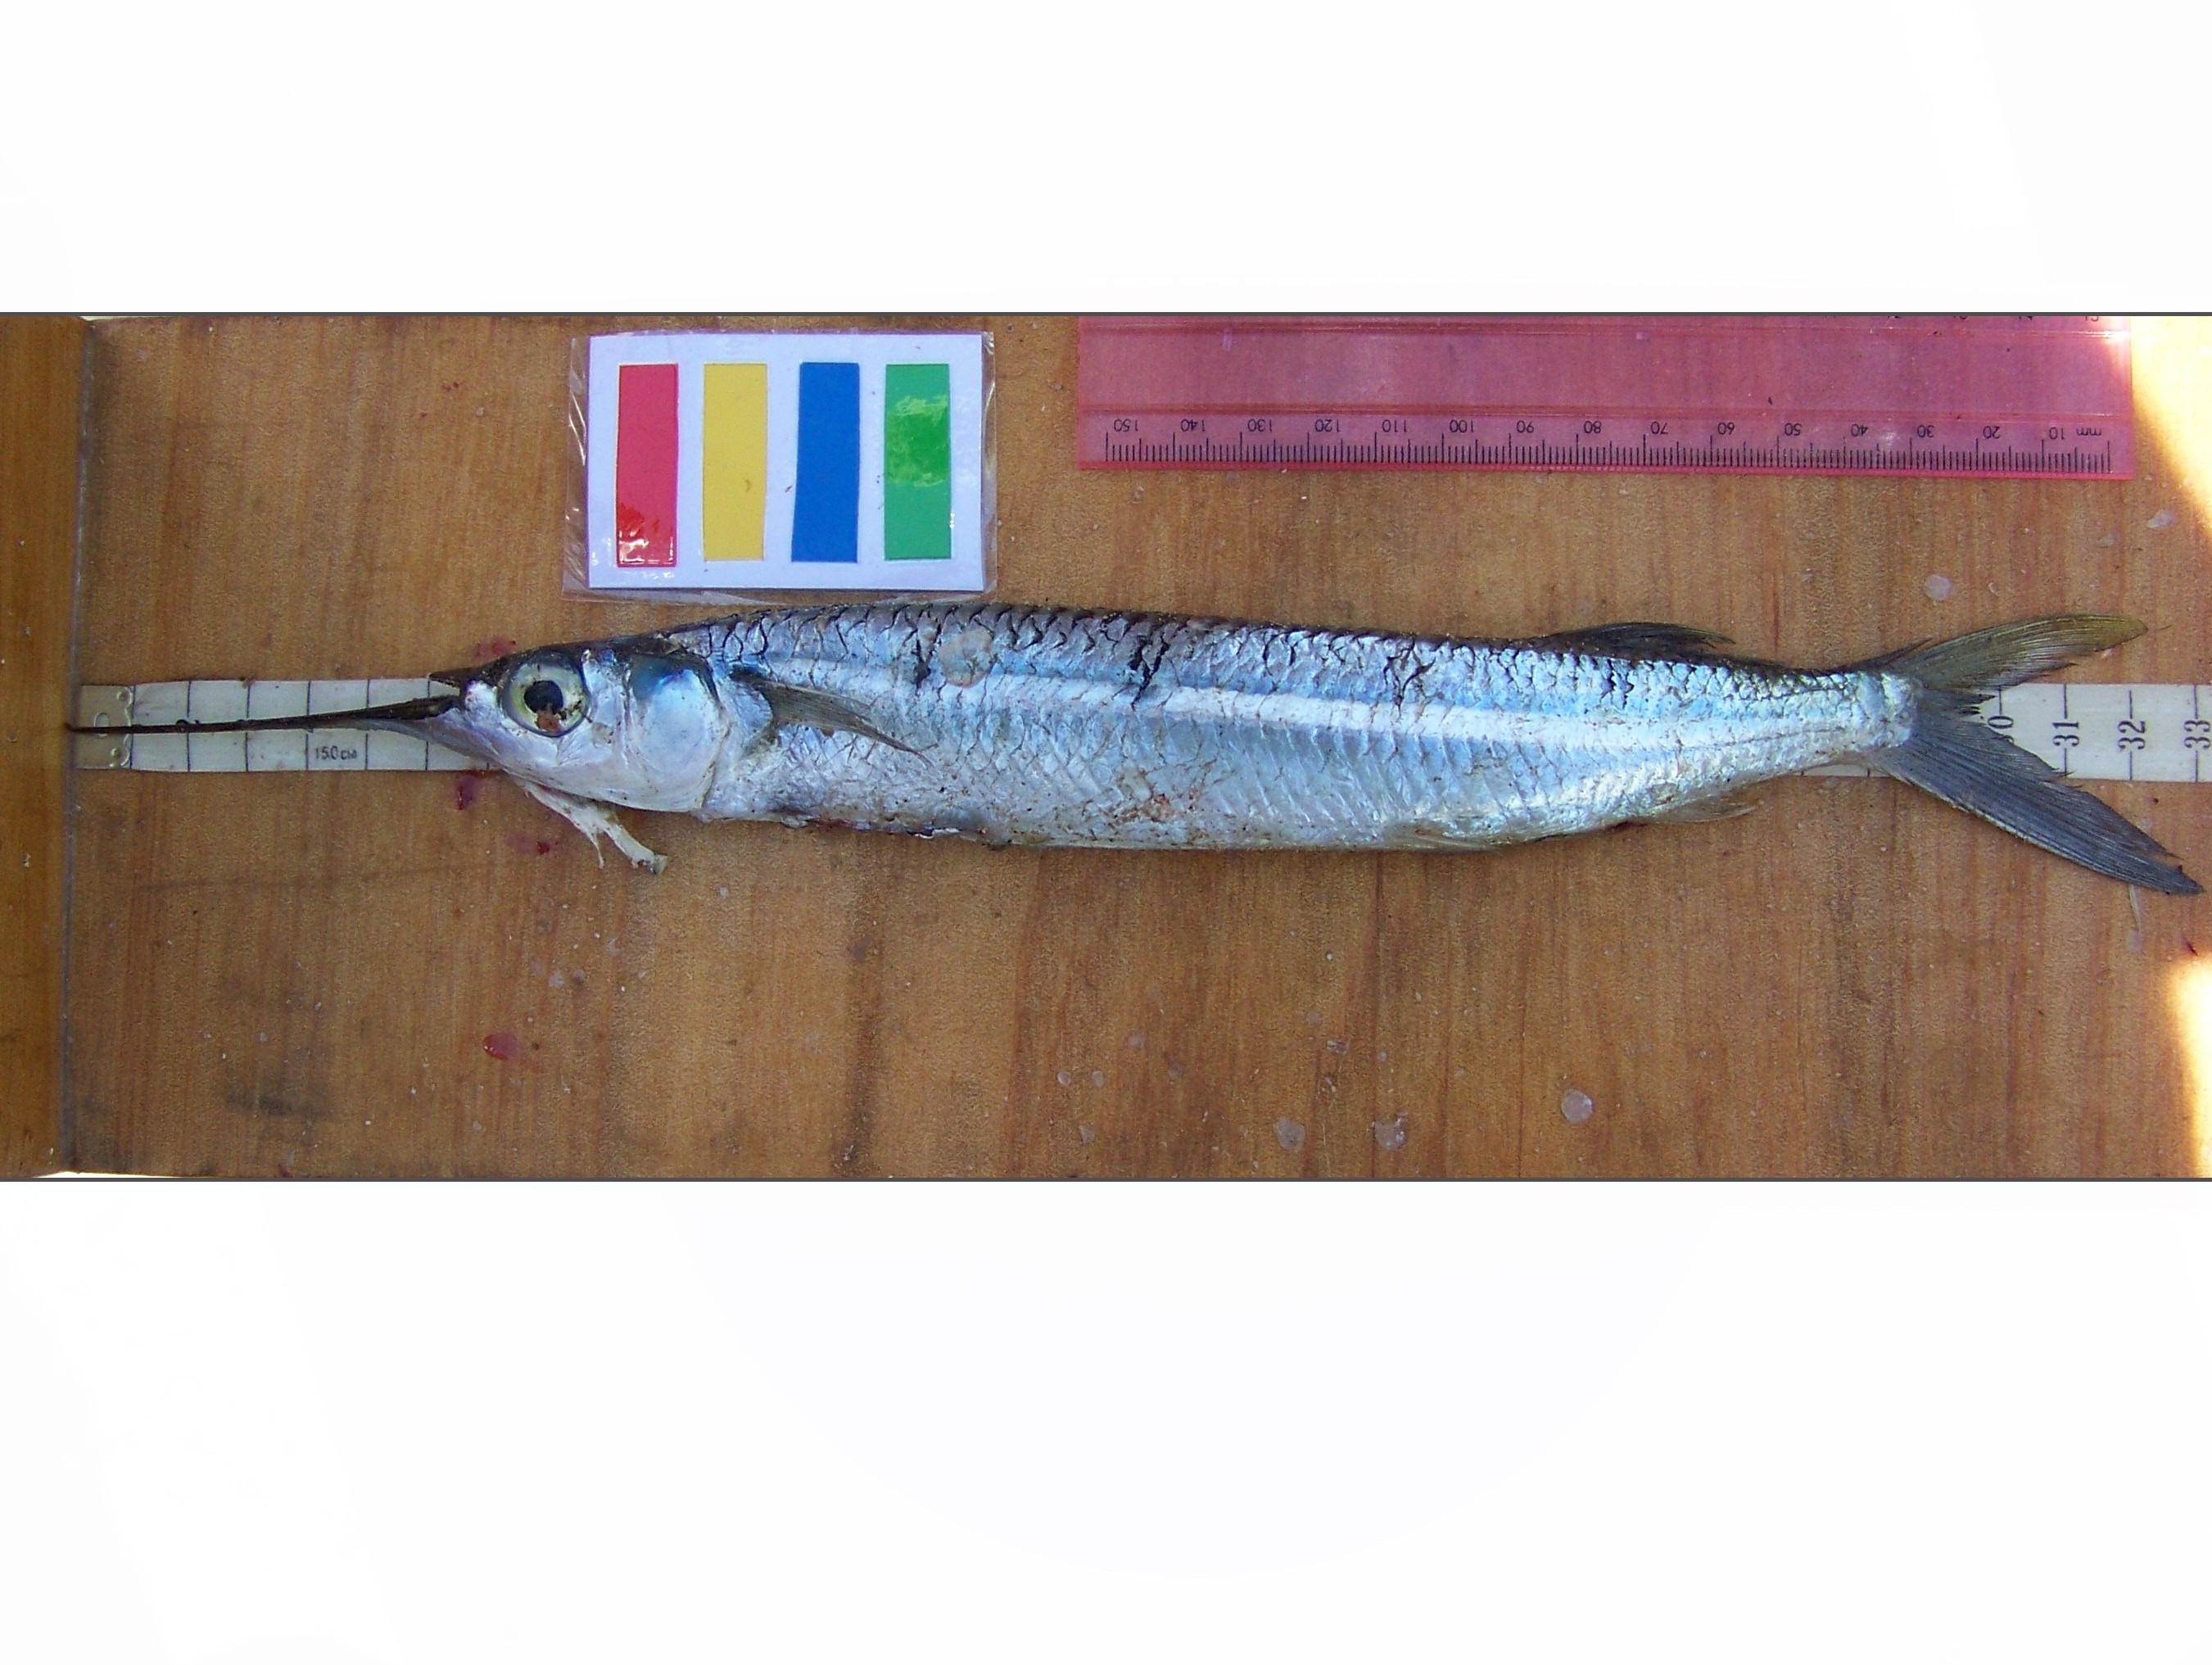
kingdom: Animalia
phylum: Chordata
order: Beloniformes
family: Hemiramphidae
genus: Hemiramphus
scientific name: Hemiramphus
